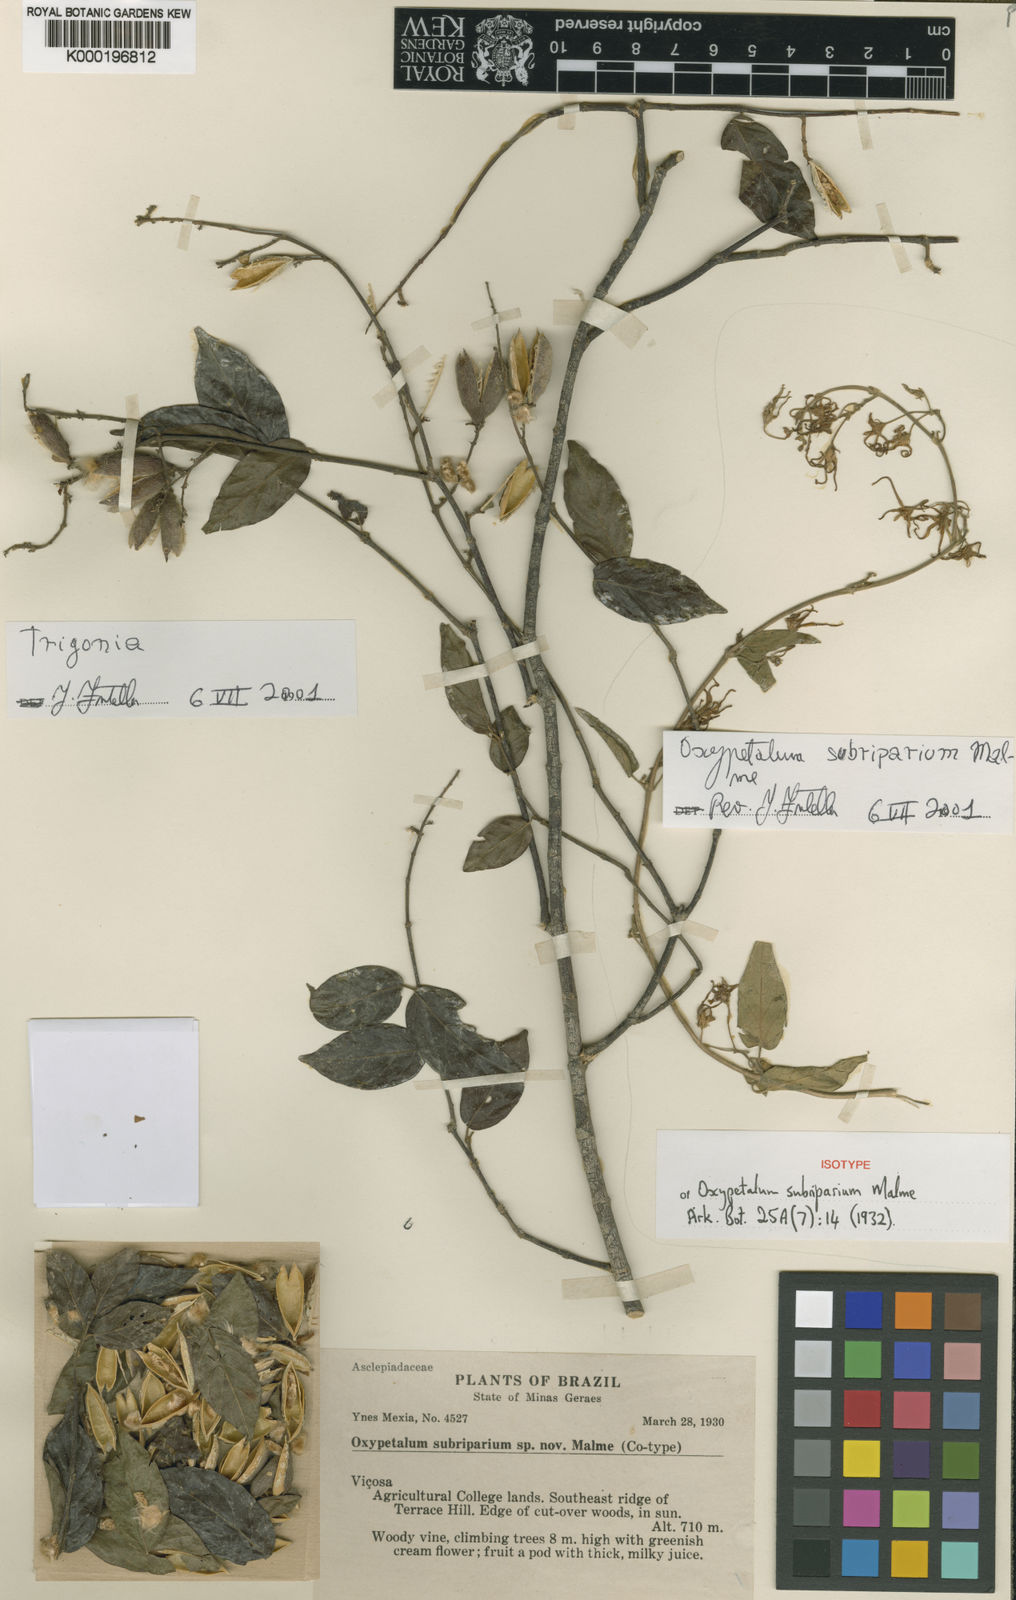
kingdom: Plantae
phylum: Tracheophyta
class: Magnoliopsida
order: Gentianales
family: Apocynaceae
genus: Oxypetalum
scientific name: Oxypetalum cordifolium
